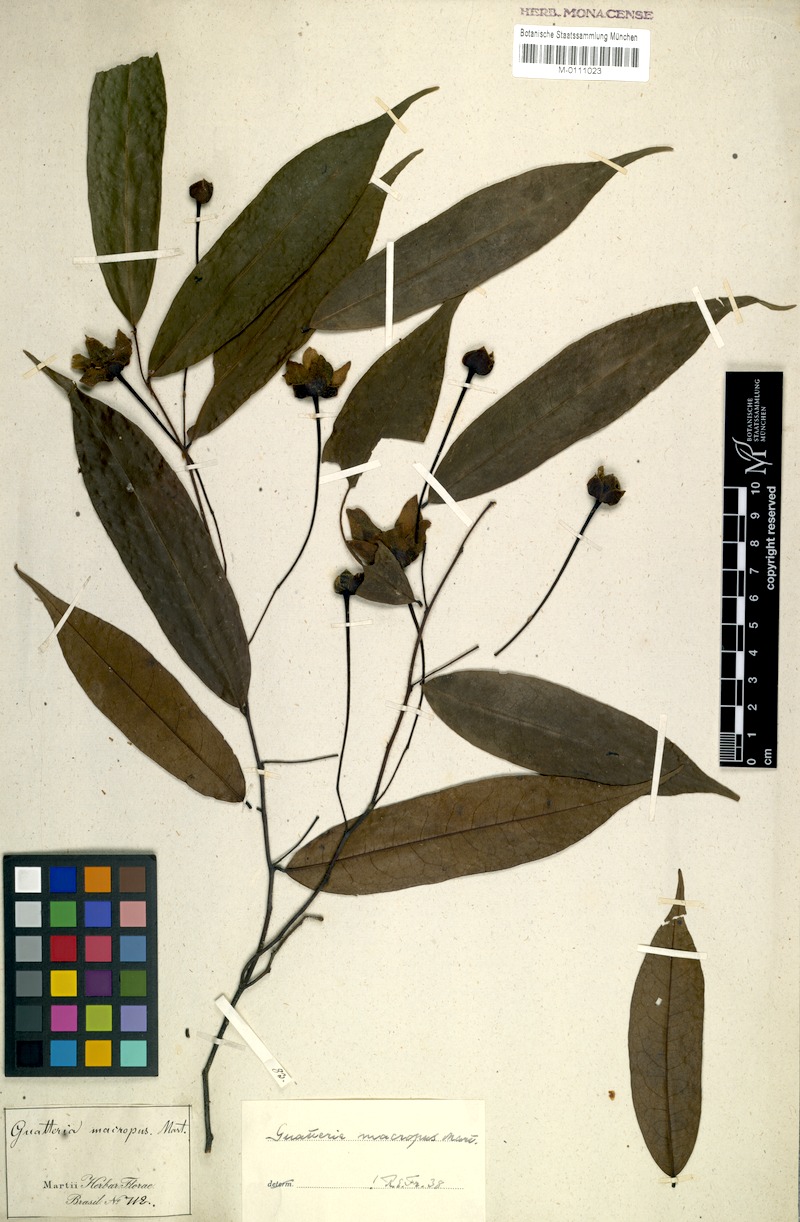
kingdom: Plantae
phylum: Tracheophyta
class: Magnoliopsida
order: Magnoliales
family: Annonaceae
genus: Guatteria
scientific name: Guatteria macropus
